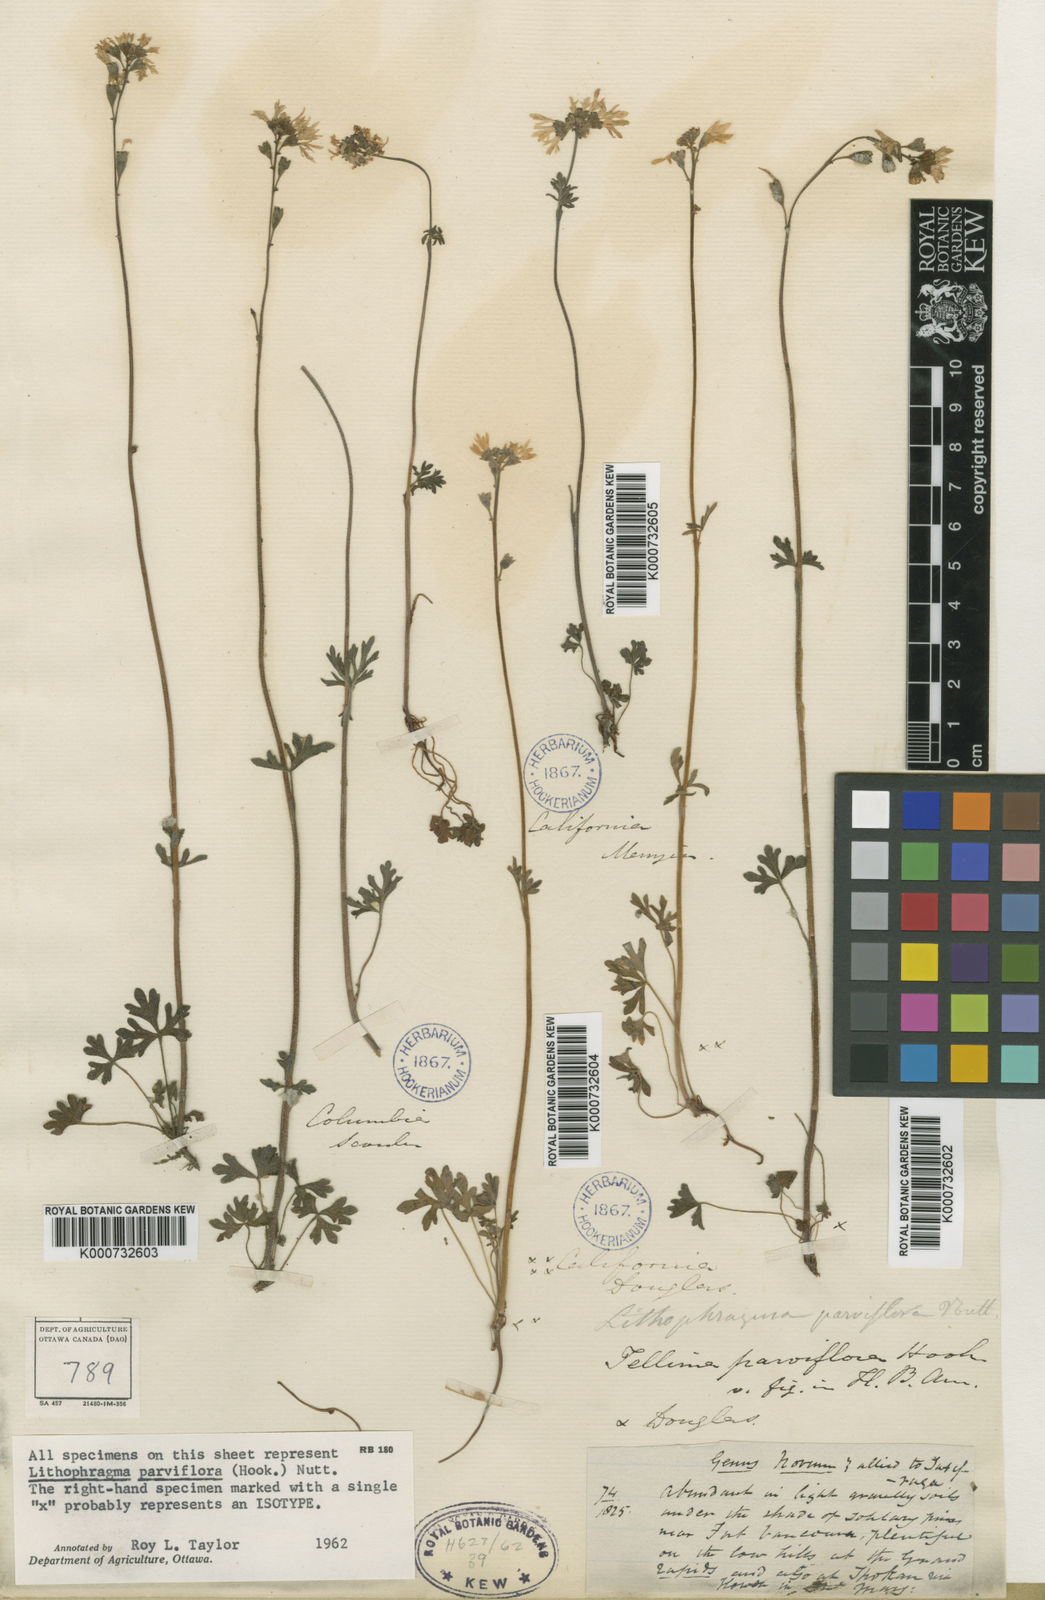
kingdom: Plantae
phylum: Tracheophyta
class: Magnoliopsida
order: Saxifragales
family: Saxifragaceae
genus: Lithophragma
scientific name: Lithophragma parviflorum
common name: Small-flowered fringe-cup
